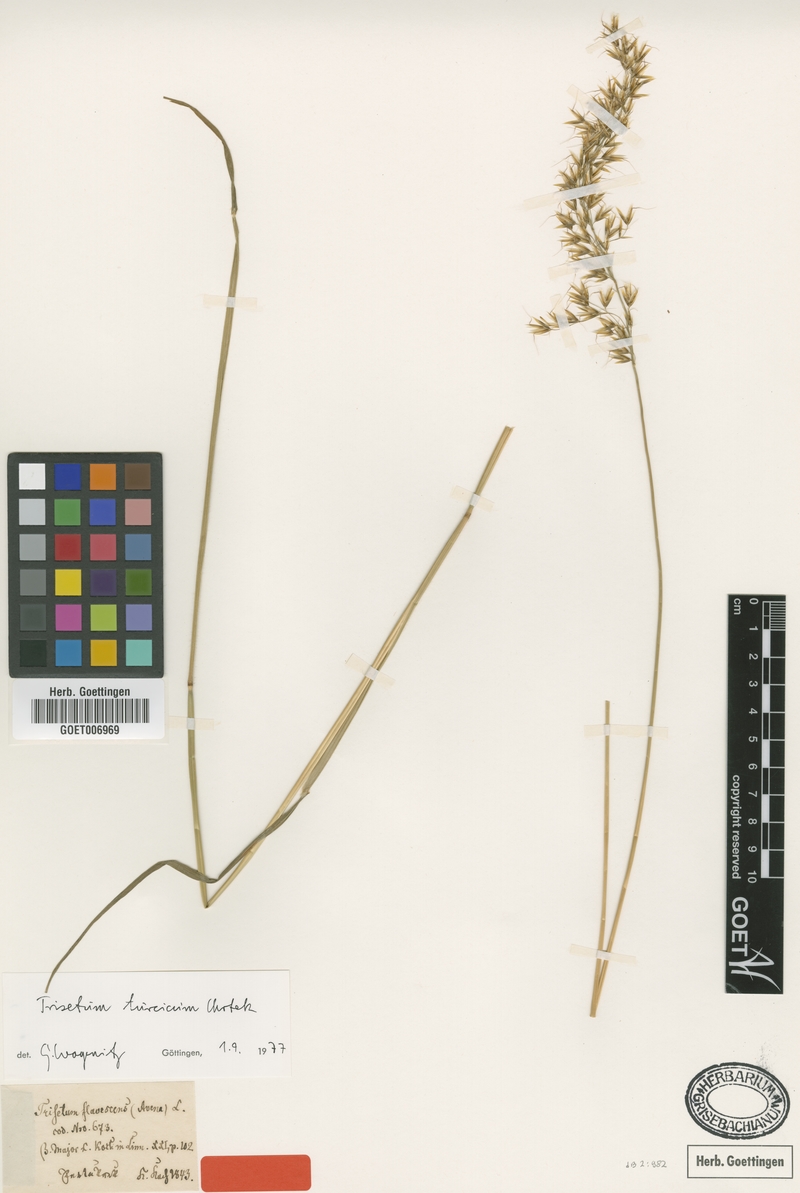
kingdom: Plantae
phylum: Tracheophyta
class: Liliopsida
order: Poales
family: Poaceae
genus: Sibirotrisetum
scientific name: Sibirotrisetum turcicum
